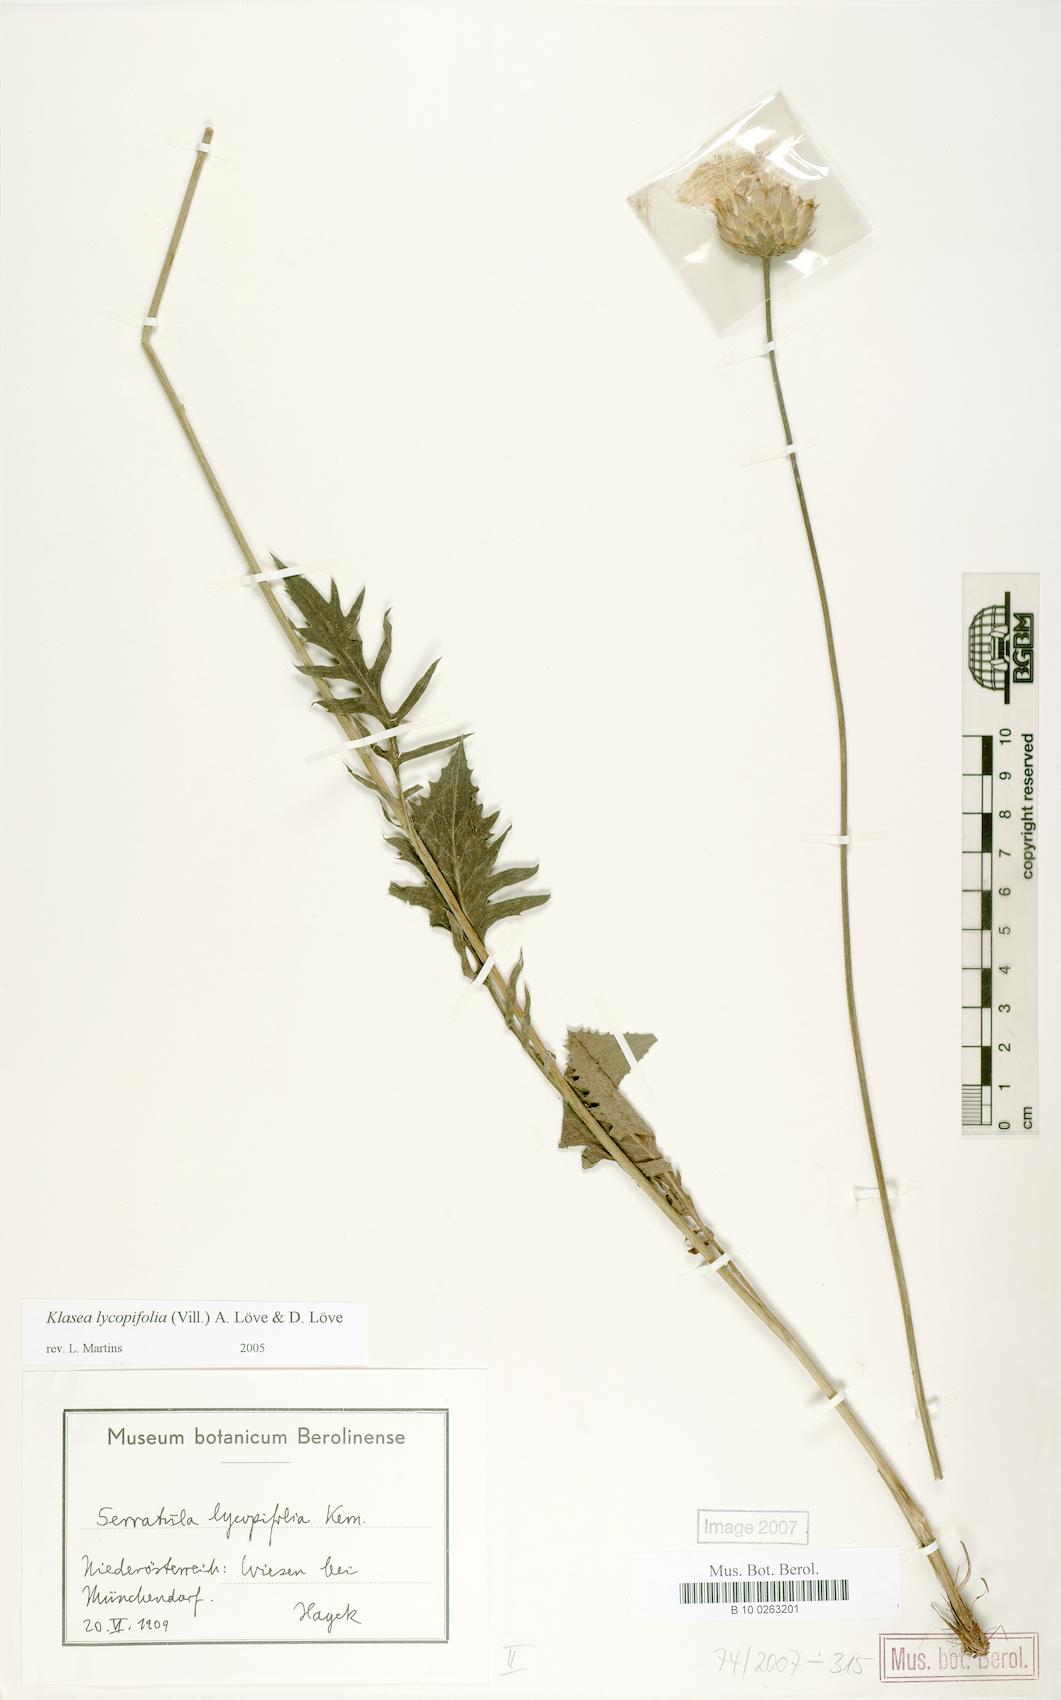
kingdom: Plantae
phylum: Tracheophyta
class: Magnoliopsida
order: Asterales
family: Asteraceae
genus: Klasea
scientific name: Klasea lycopifolia
